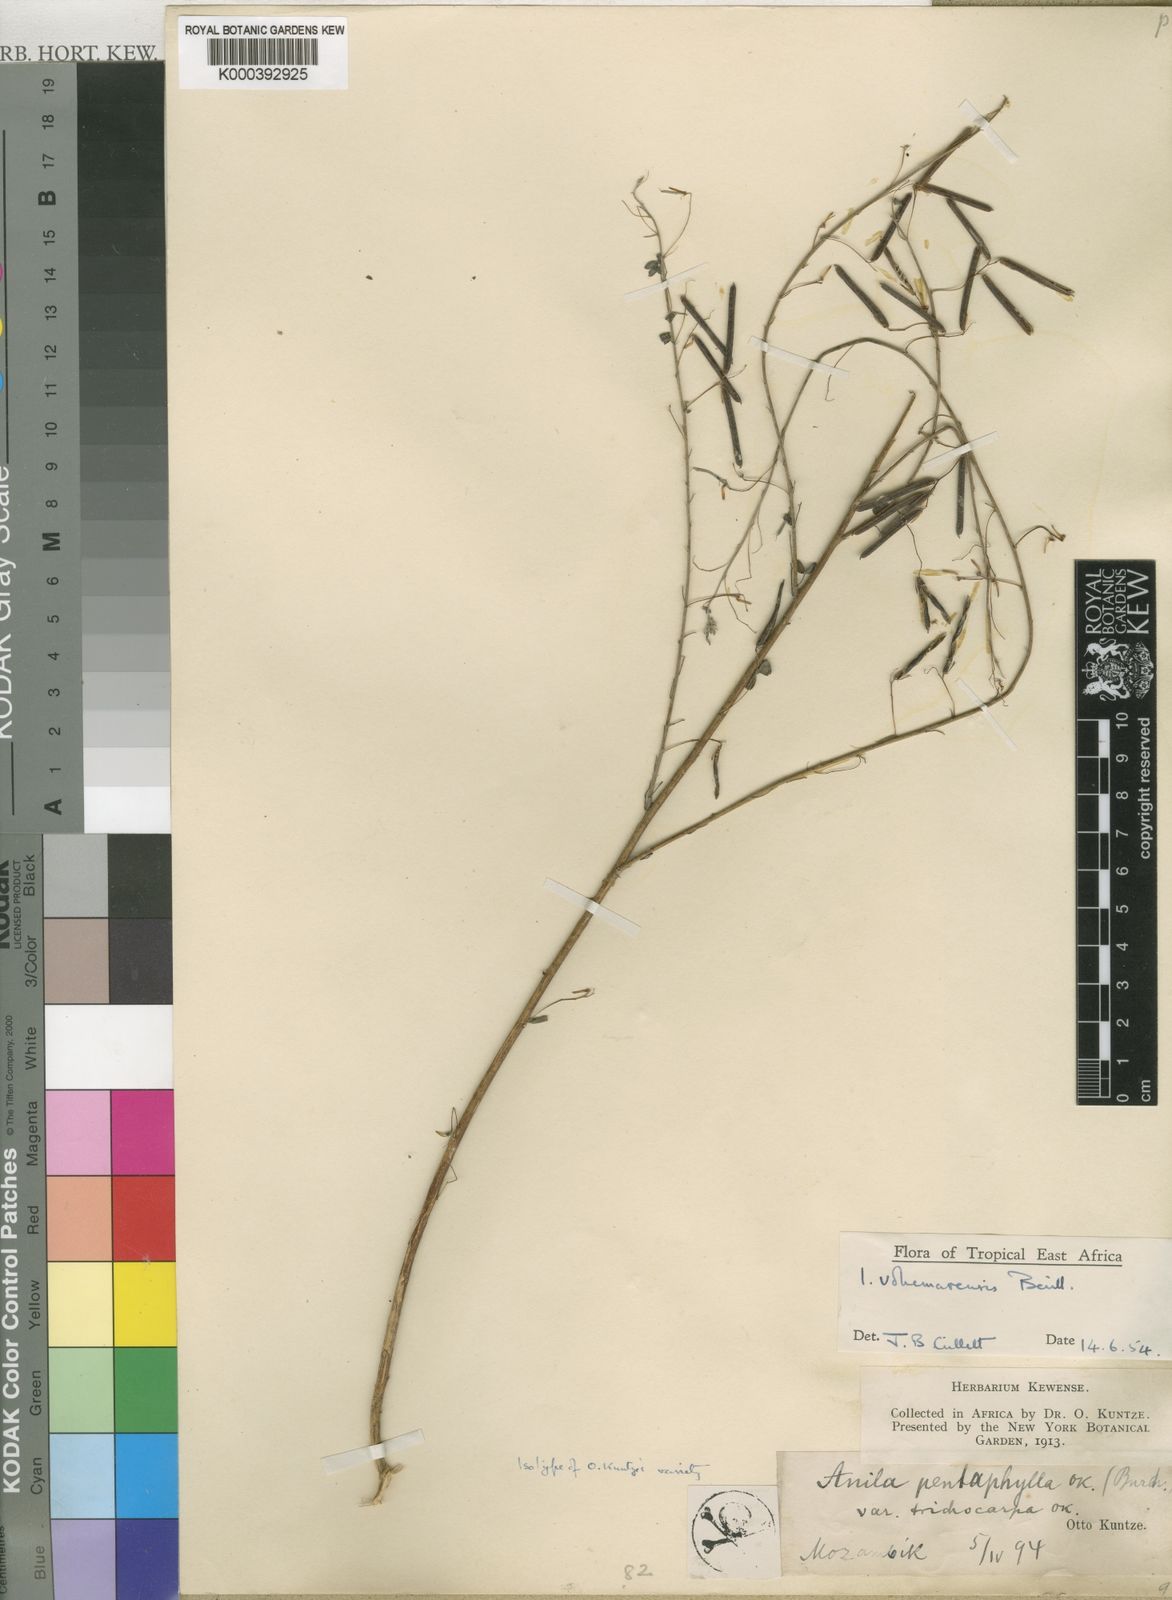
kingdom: Plantae
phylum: Tracheophyta
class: Magnoliopsida
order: Fabales
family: Fabaceae
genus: Indigofera
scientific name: Indigofera vohemarensis
